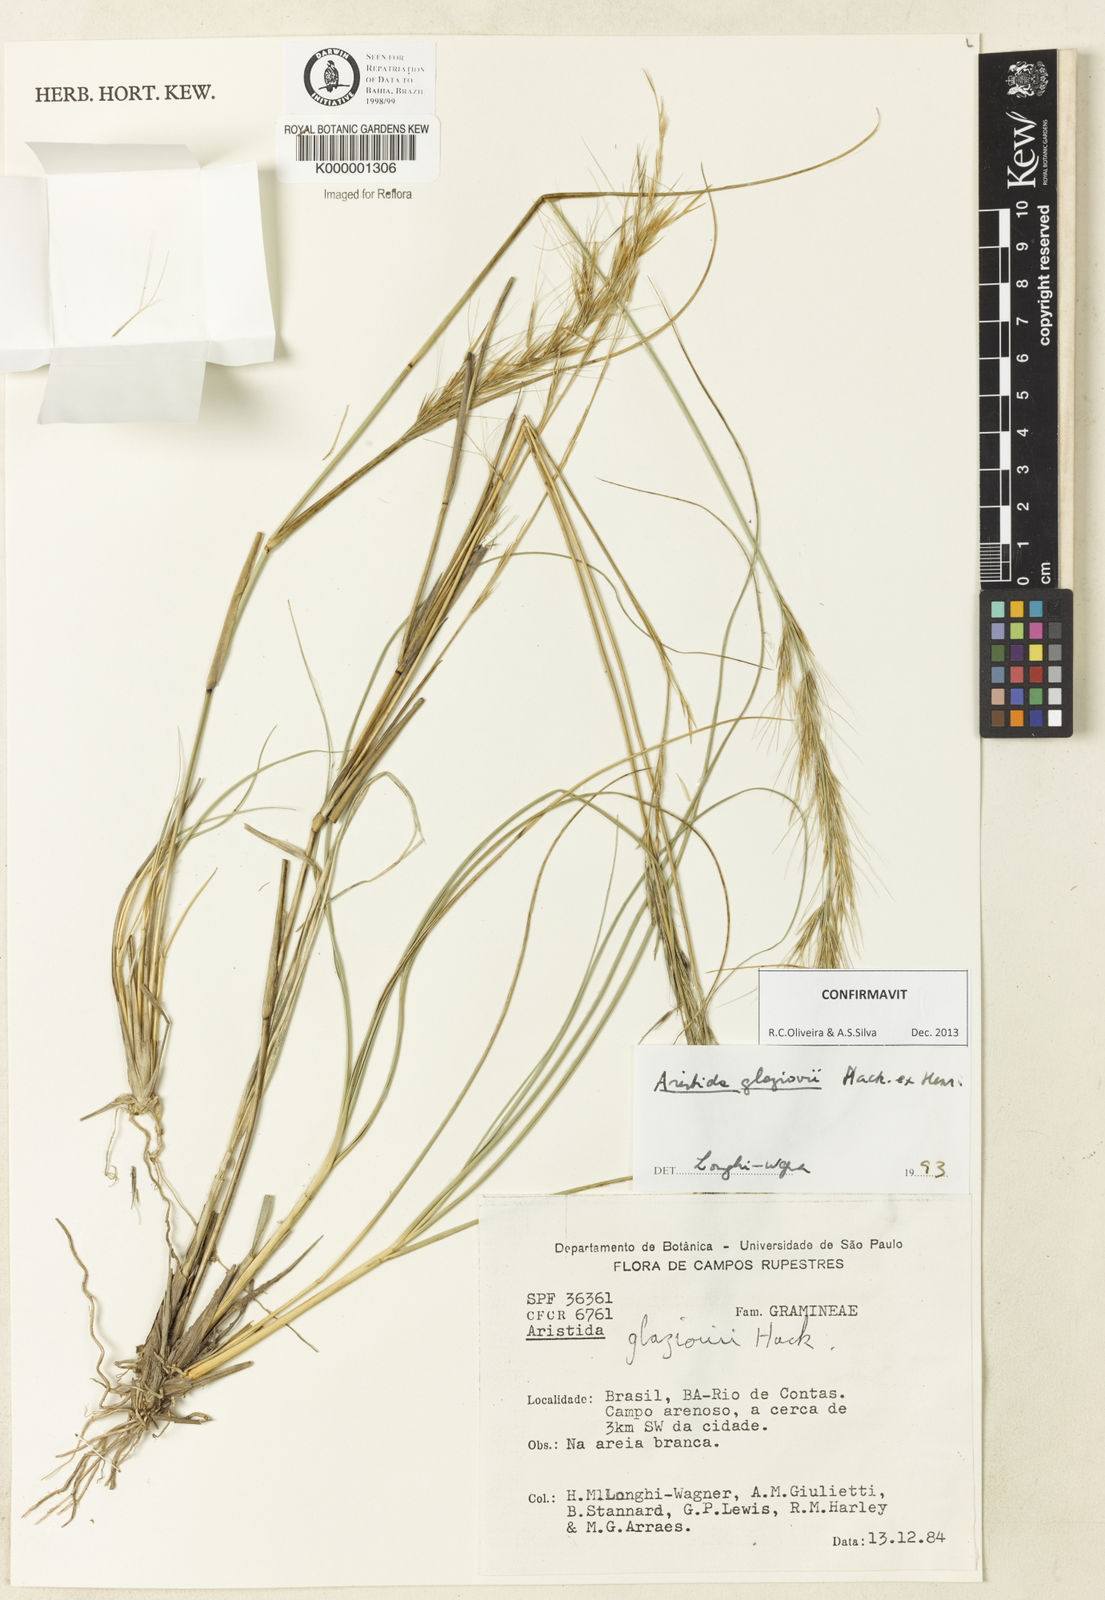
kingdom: Plantae
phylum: Tracheophyta
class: Liliopsida
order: Poales
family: Poaceae
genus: Aristida
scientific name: Aristida
